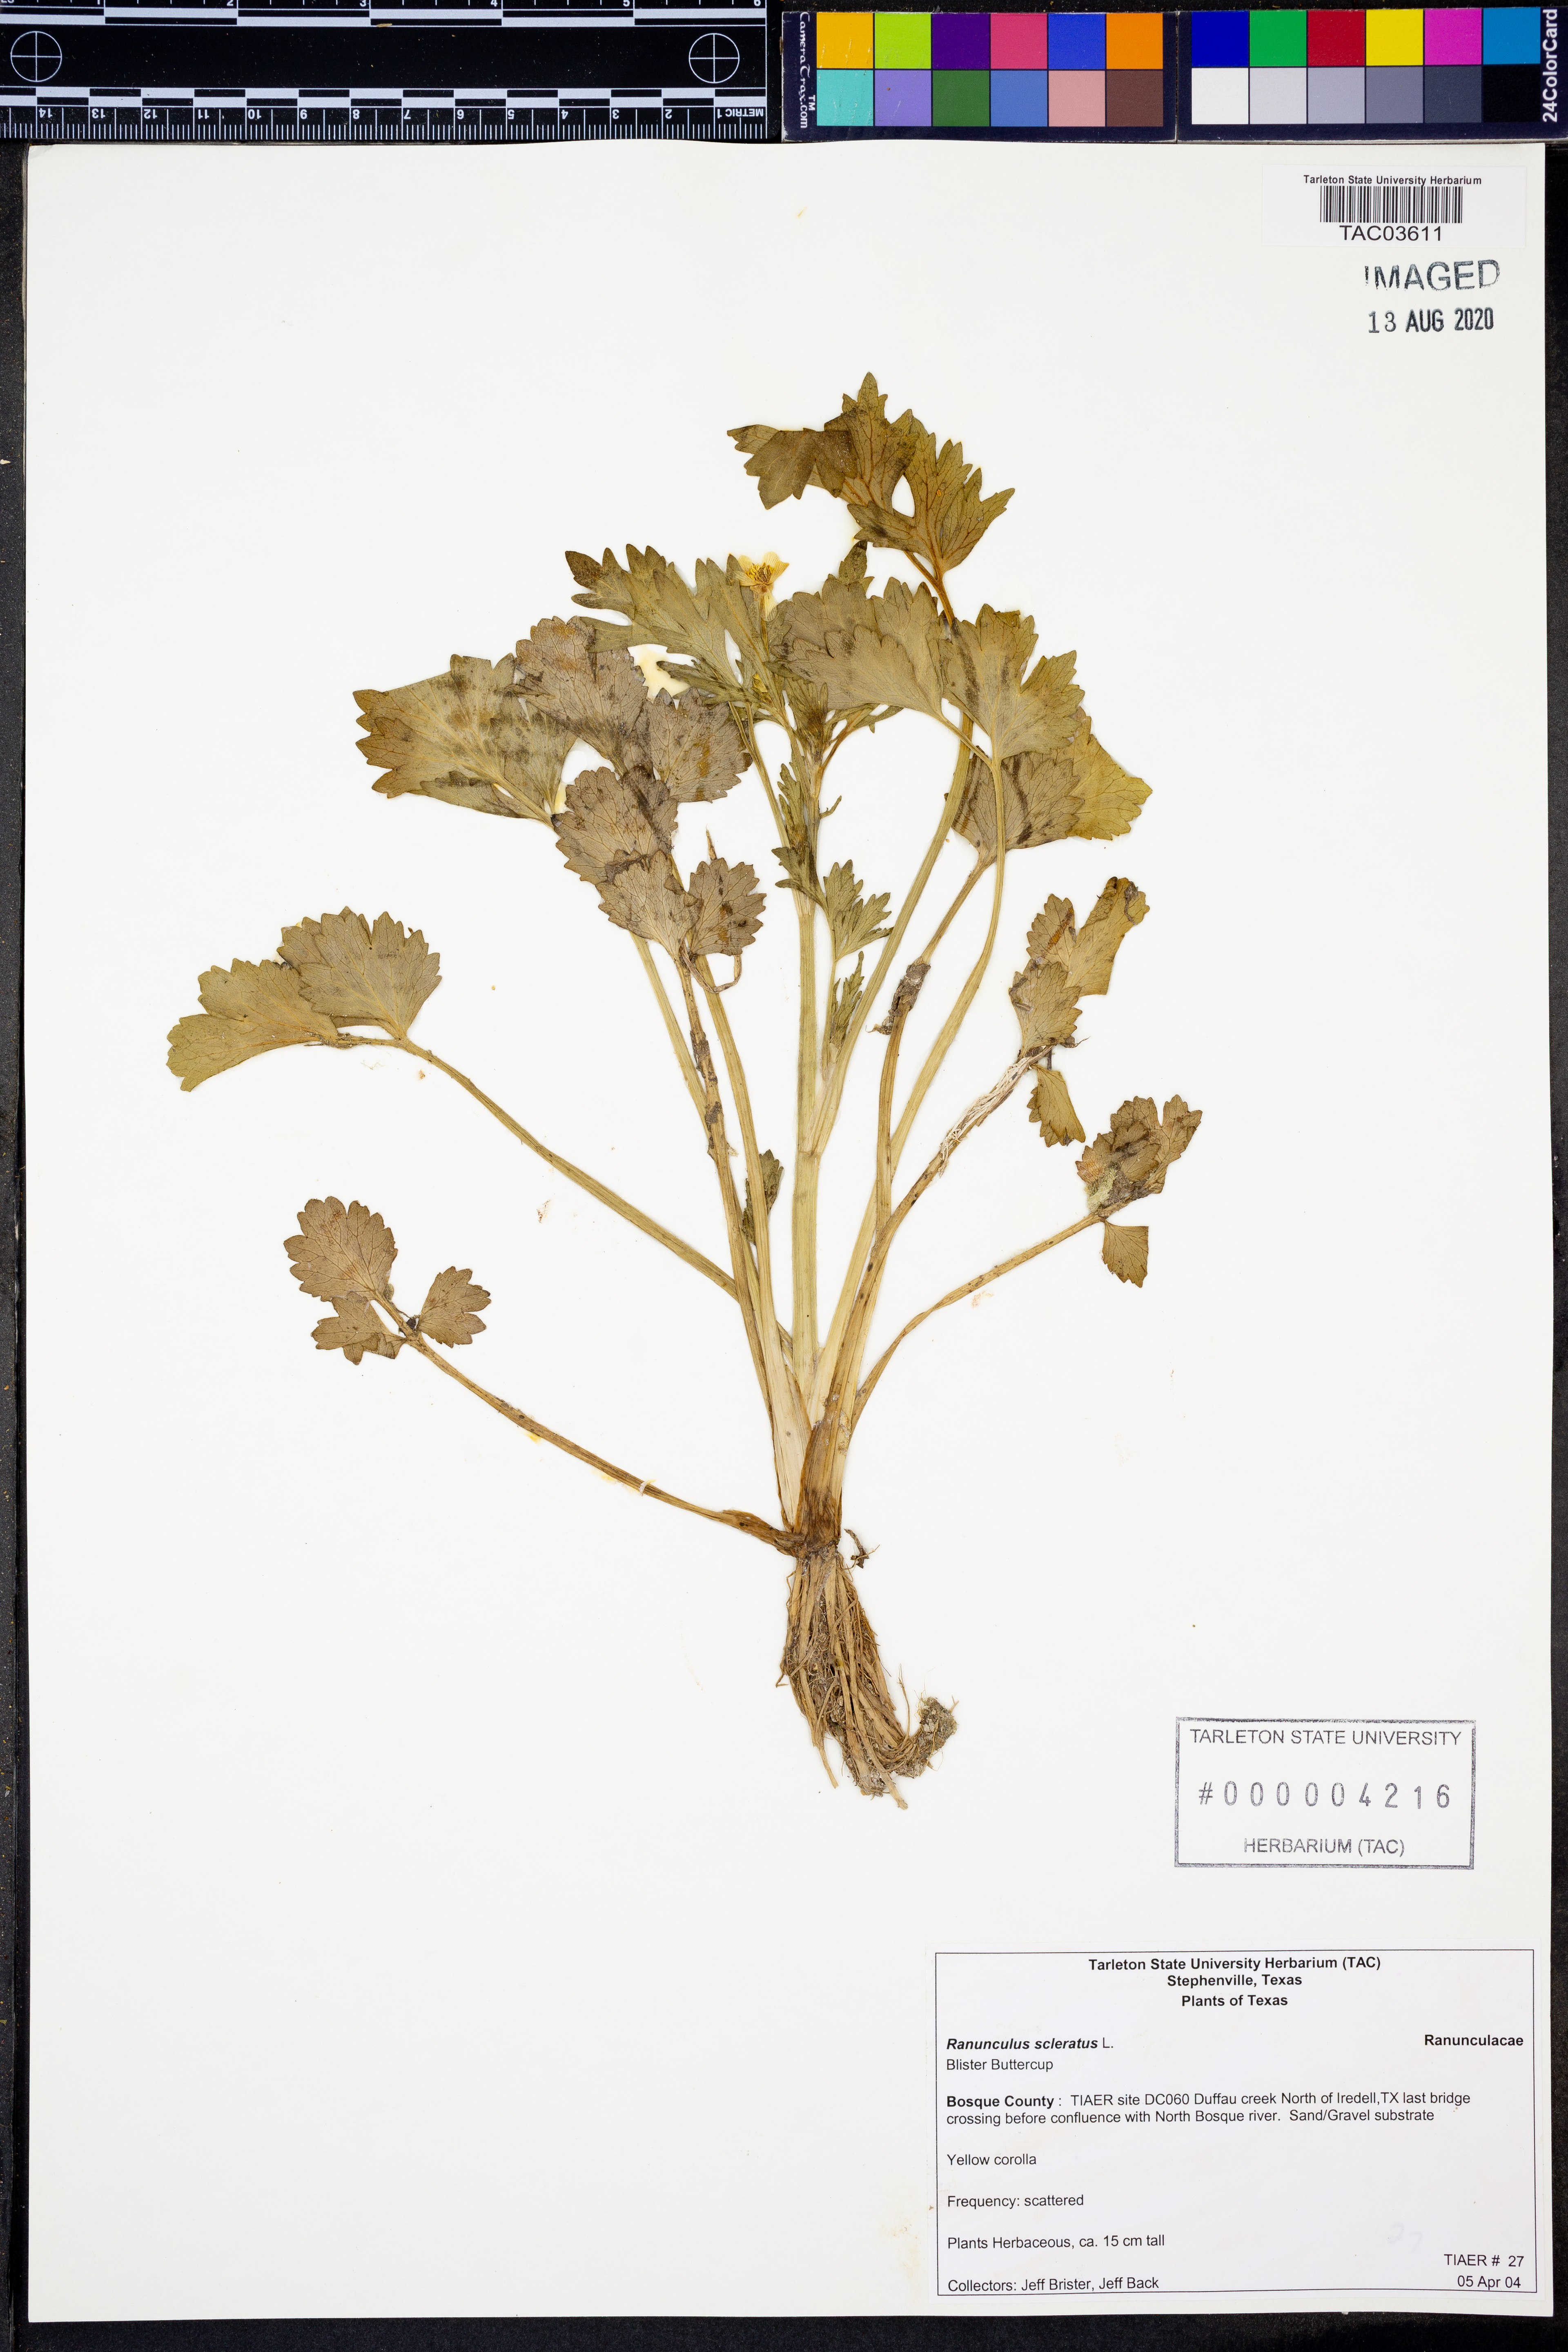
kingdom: Plantae
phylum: Tracheophyta
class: Magnoliopsida
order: Ranunculales
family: Ranunculaceae
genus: Ranunculus
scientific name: Ranunculus sceleratus
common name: Celery-leaved buttercup
